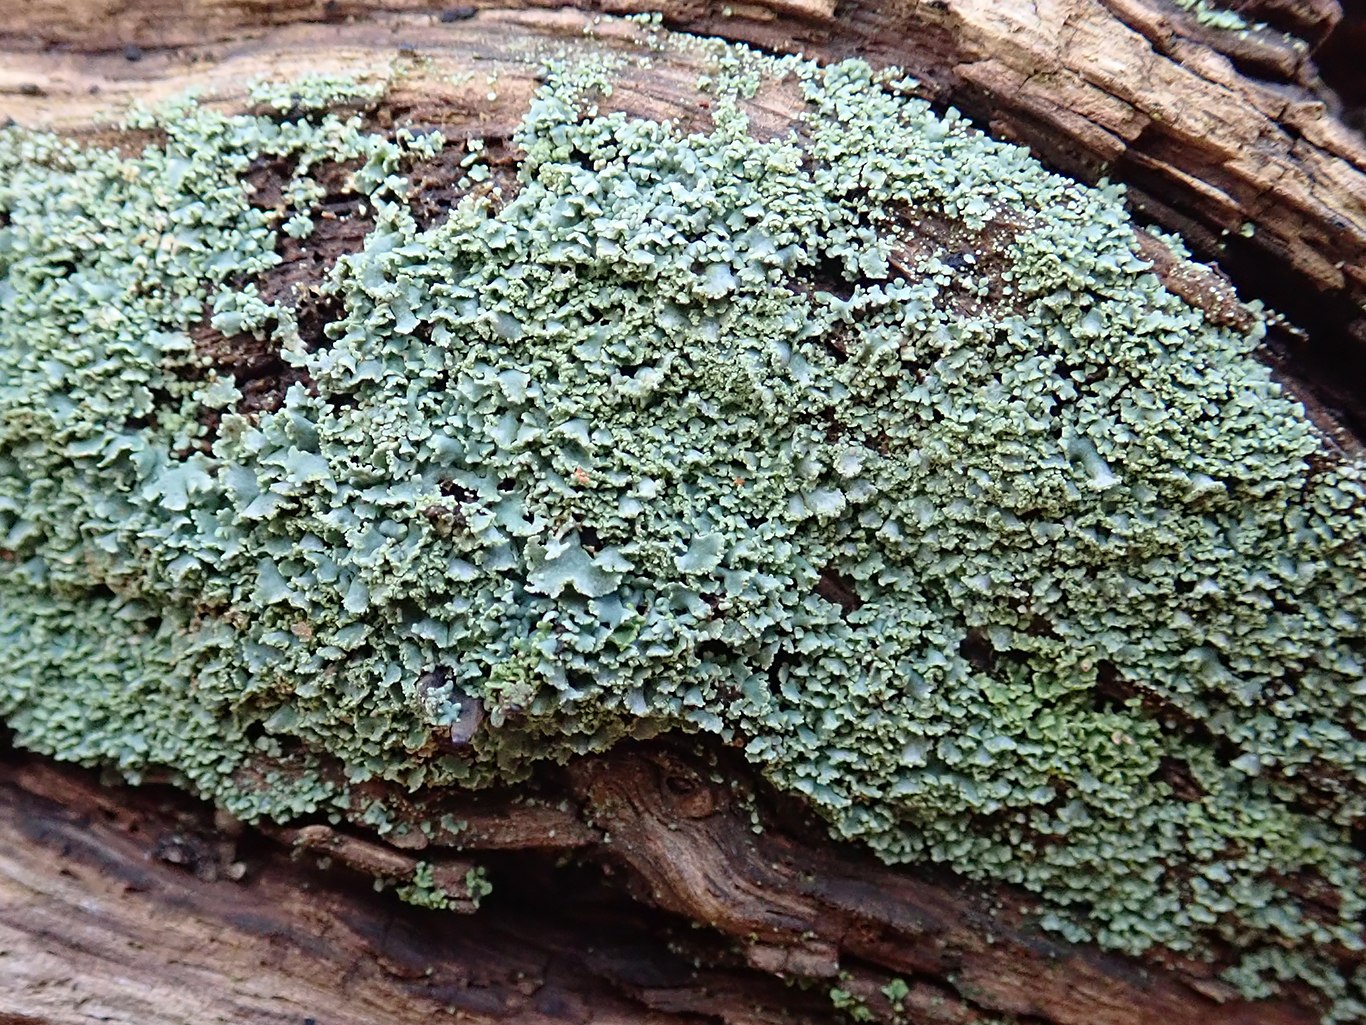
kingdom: Fungi
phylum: Ascomycota
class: Lecanoromycetes
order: Lecanorales
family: Cladoniaceae
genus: Cladonia
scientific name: Cladonia
